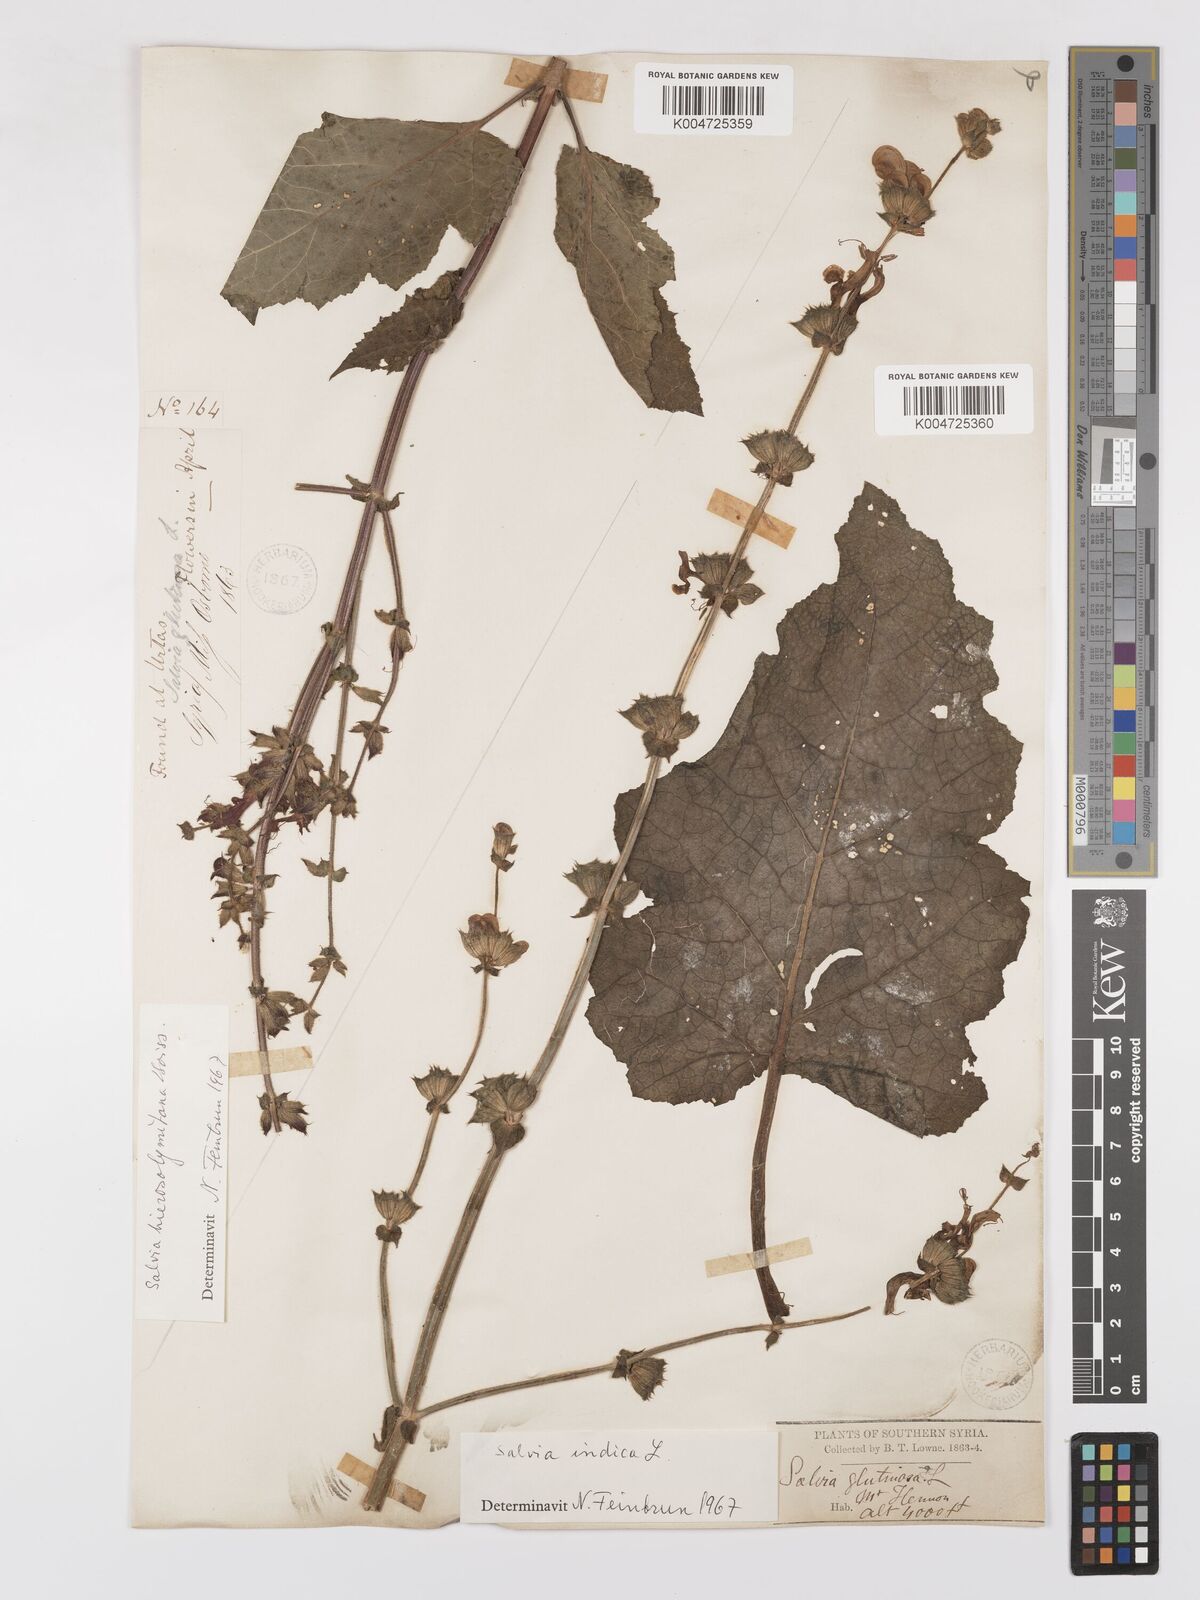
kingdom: Plantae
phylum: Tracheophyta
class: Magnoliopsida
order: Lamiales
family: Lamiaceae
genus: Salvia
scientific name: Salvia indica
